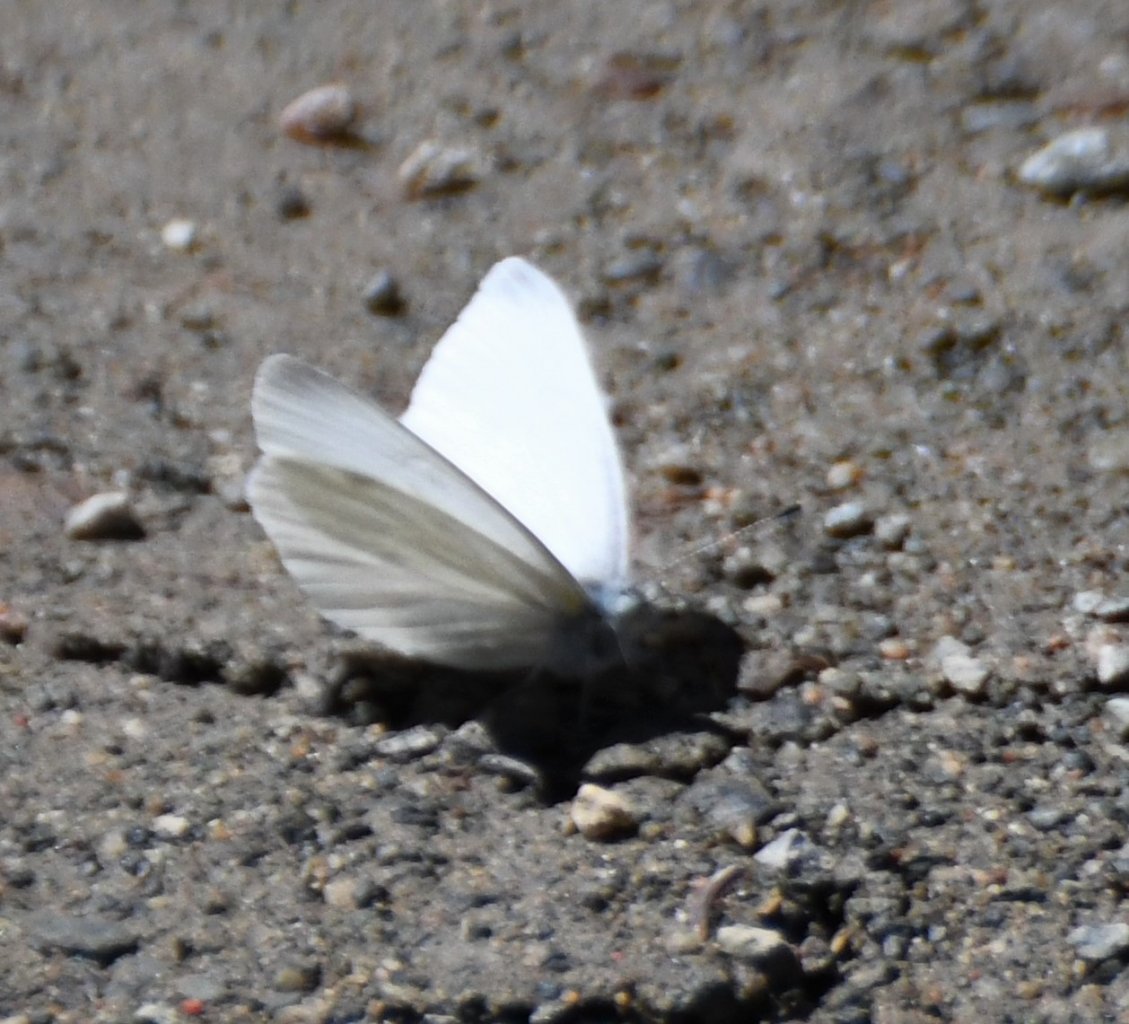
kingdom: Animalia
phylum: Arthropoda
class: Insecta
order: Lepidoptera
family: Pieridae
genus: Pieris
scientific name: Pieris virginiensis
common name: West Virginia White
